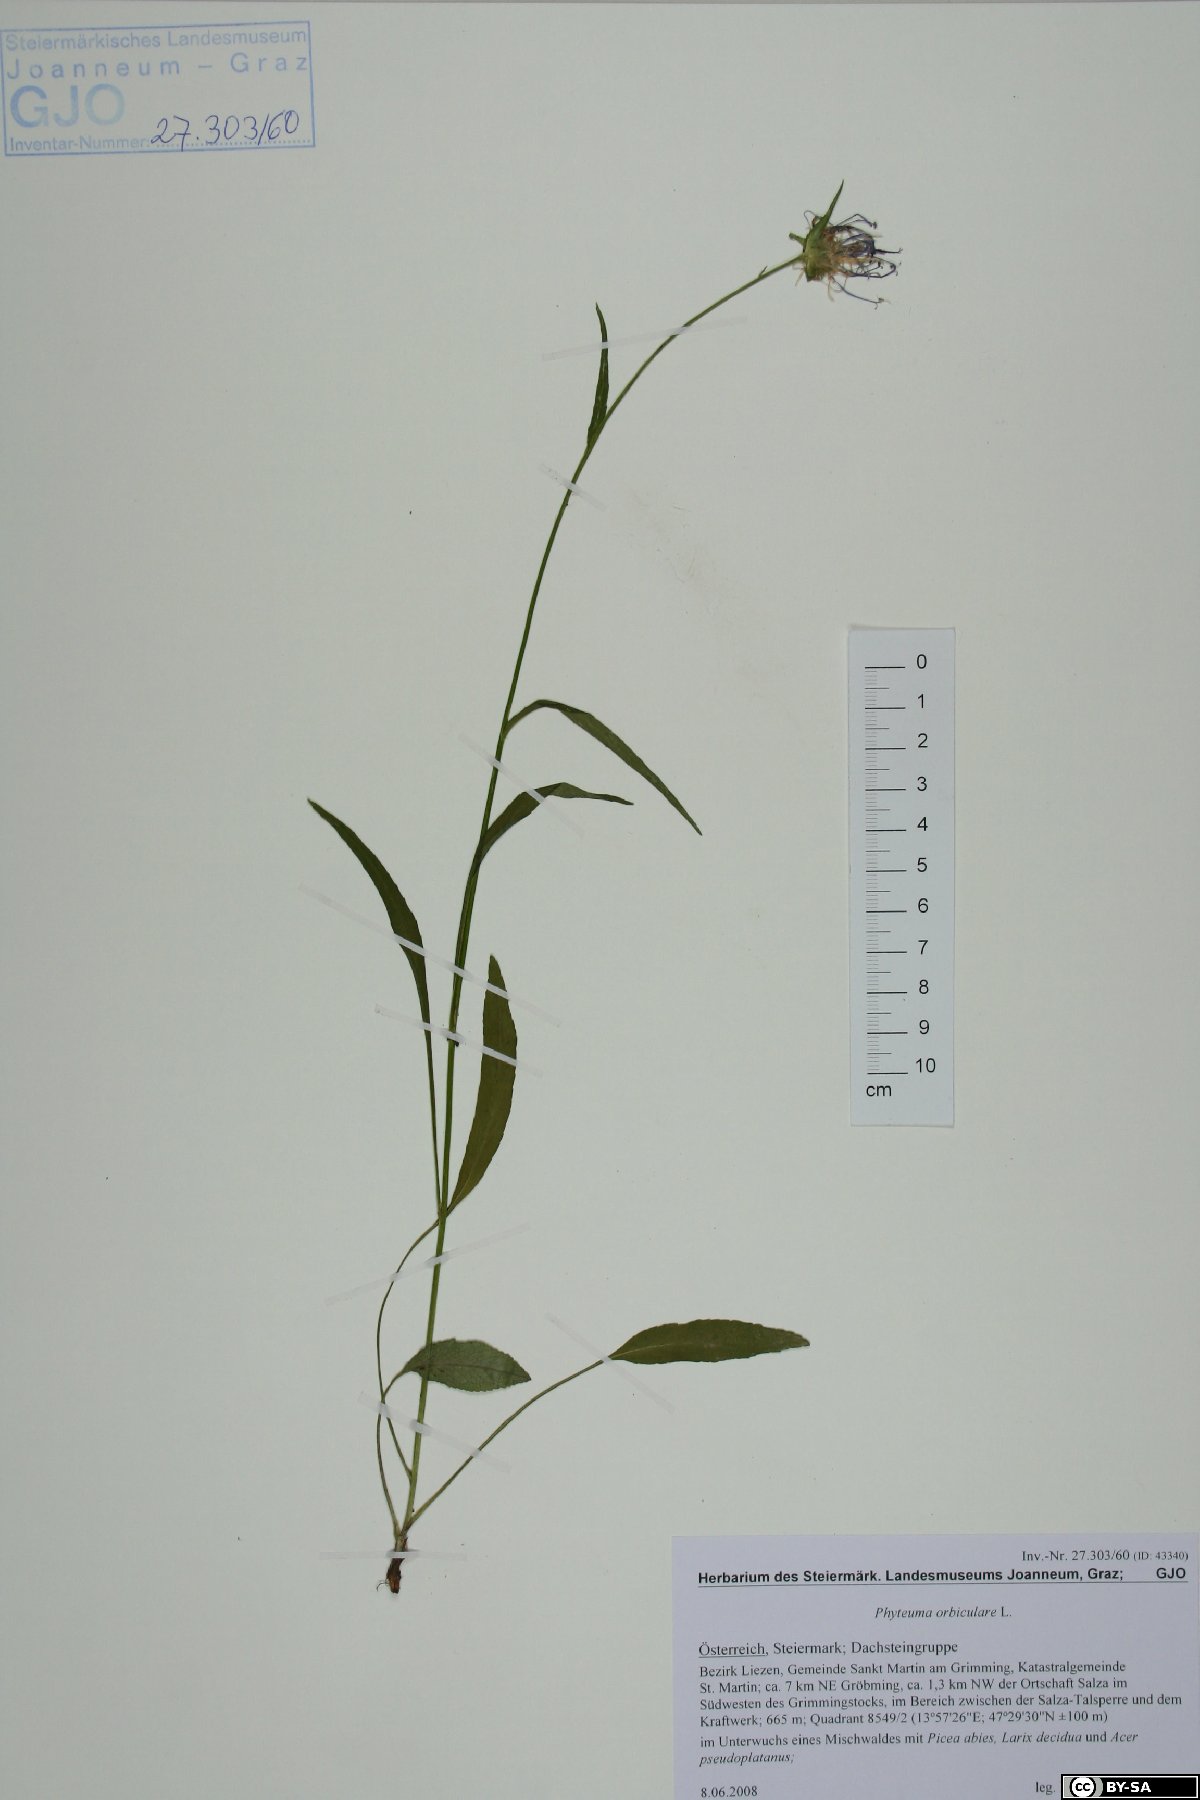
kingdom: Plantae
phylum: Tracheophyta
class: Magnoliopsida
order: Asterales
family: Campanulaceae
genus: Phyteuma
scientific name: Phyteuma orbiculare
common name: Round-headed rampion
